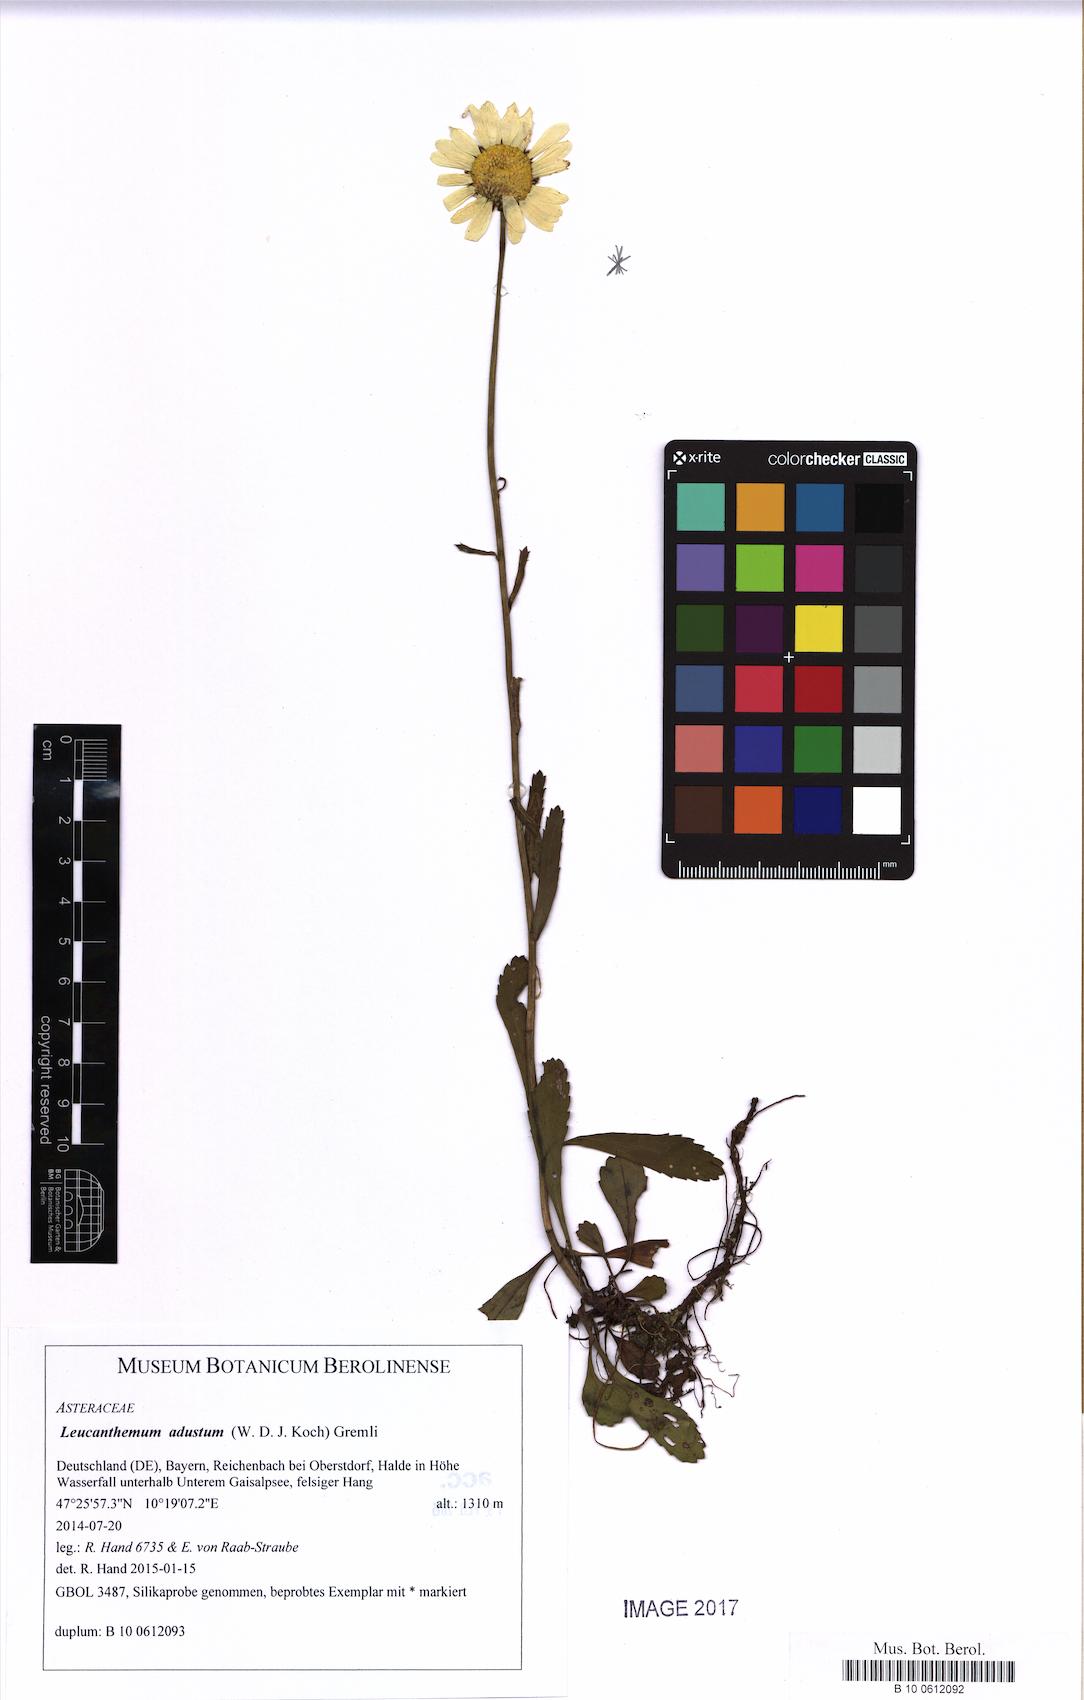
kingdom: Plantae
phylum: Tracheophyta
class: Magnoliopsida
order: Asterales
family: Asteraceae
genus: Leucanthemum
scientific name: Leucanthemum adustum
